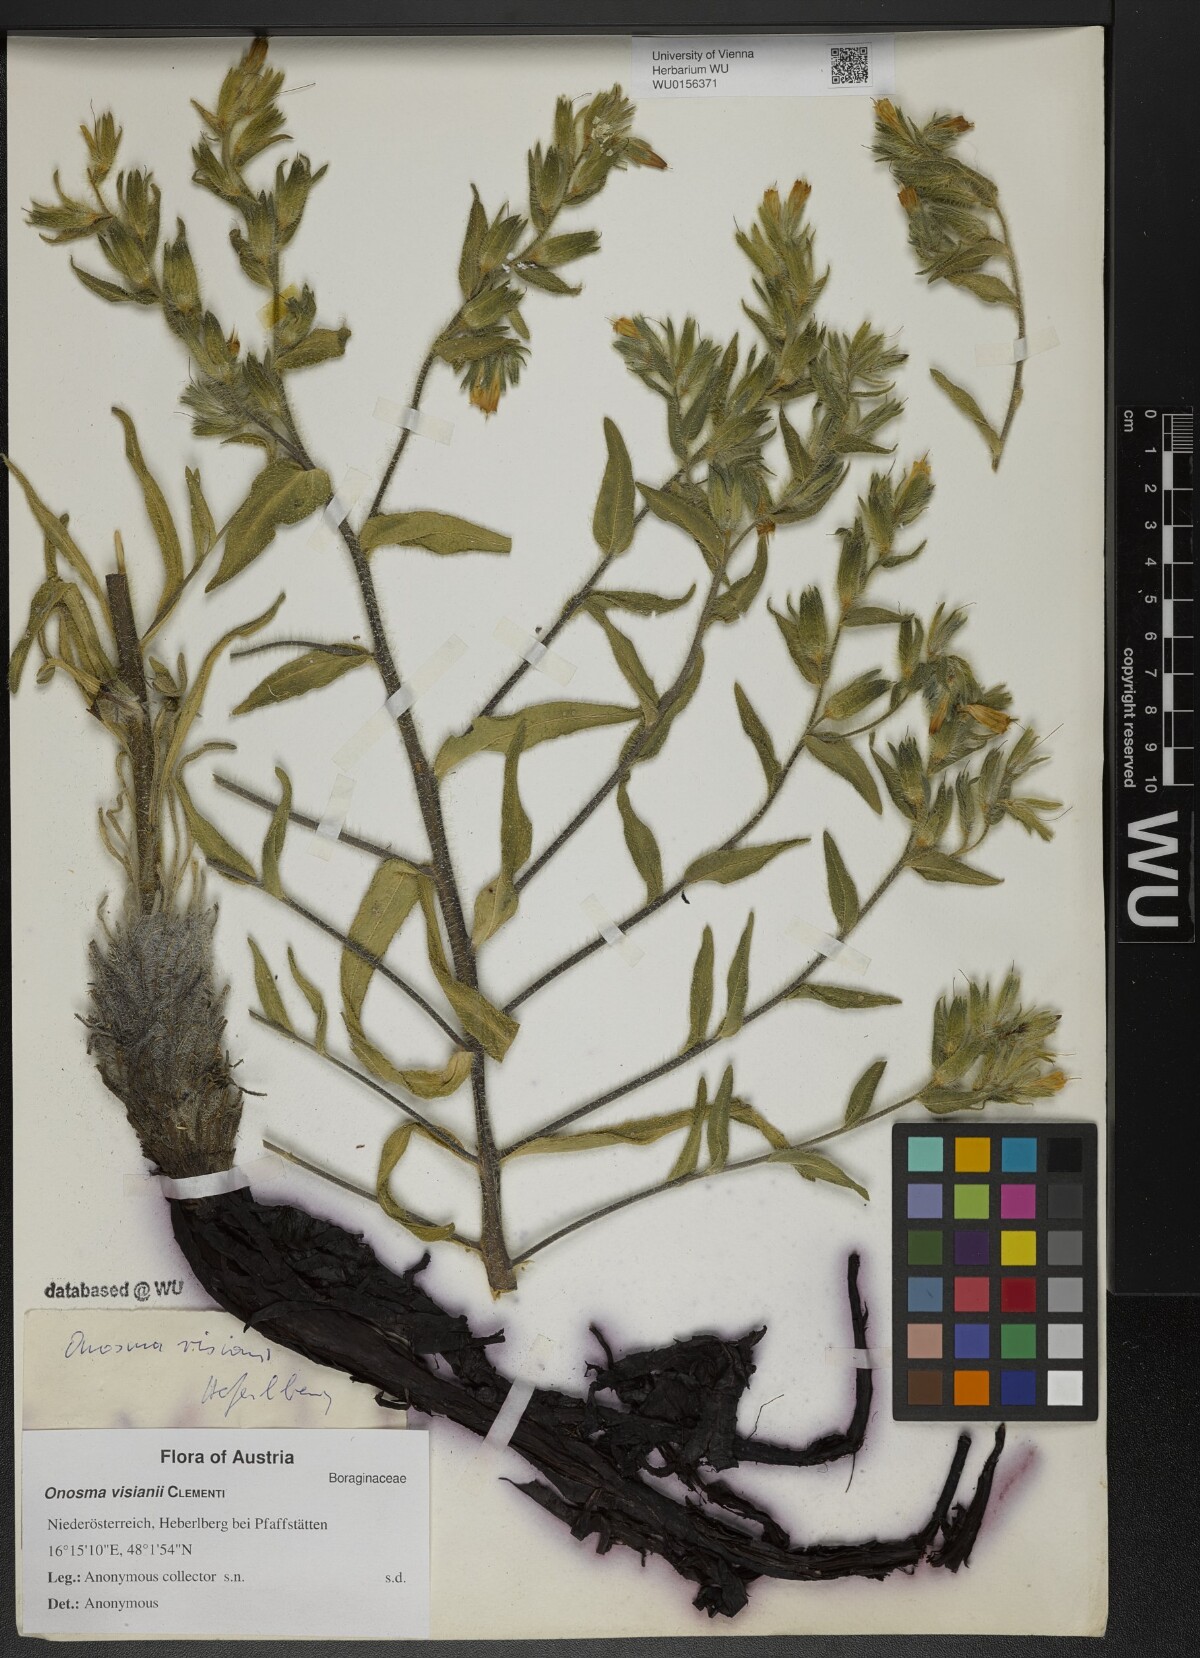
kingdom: Plantae
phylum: Tracheophyta
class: Magnoliopsida
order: Boraginales
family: Boraginaceae
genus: Onosma
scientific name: Onosma visianii
